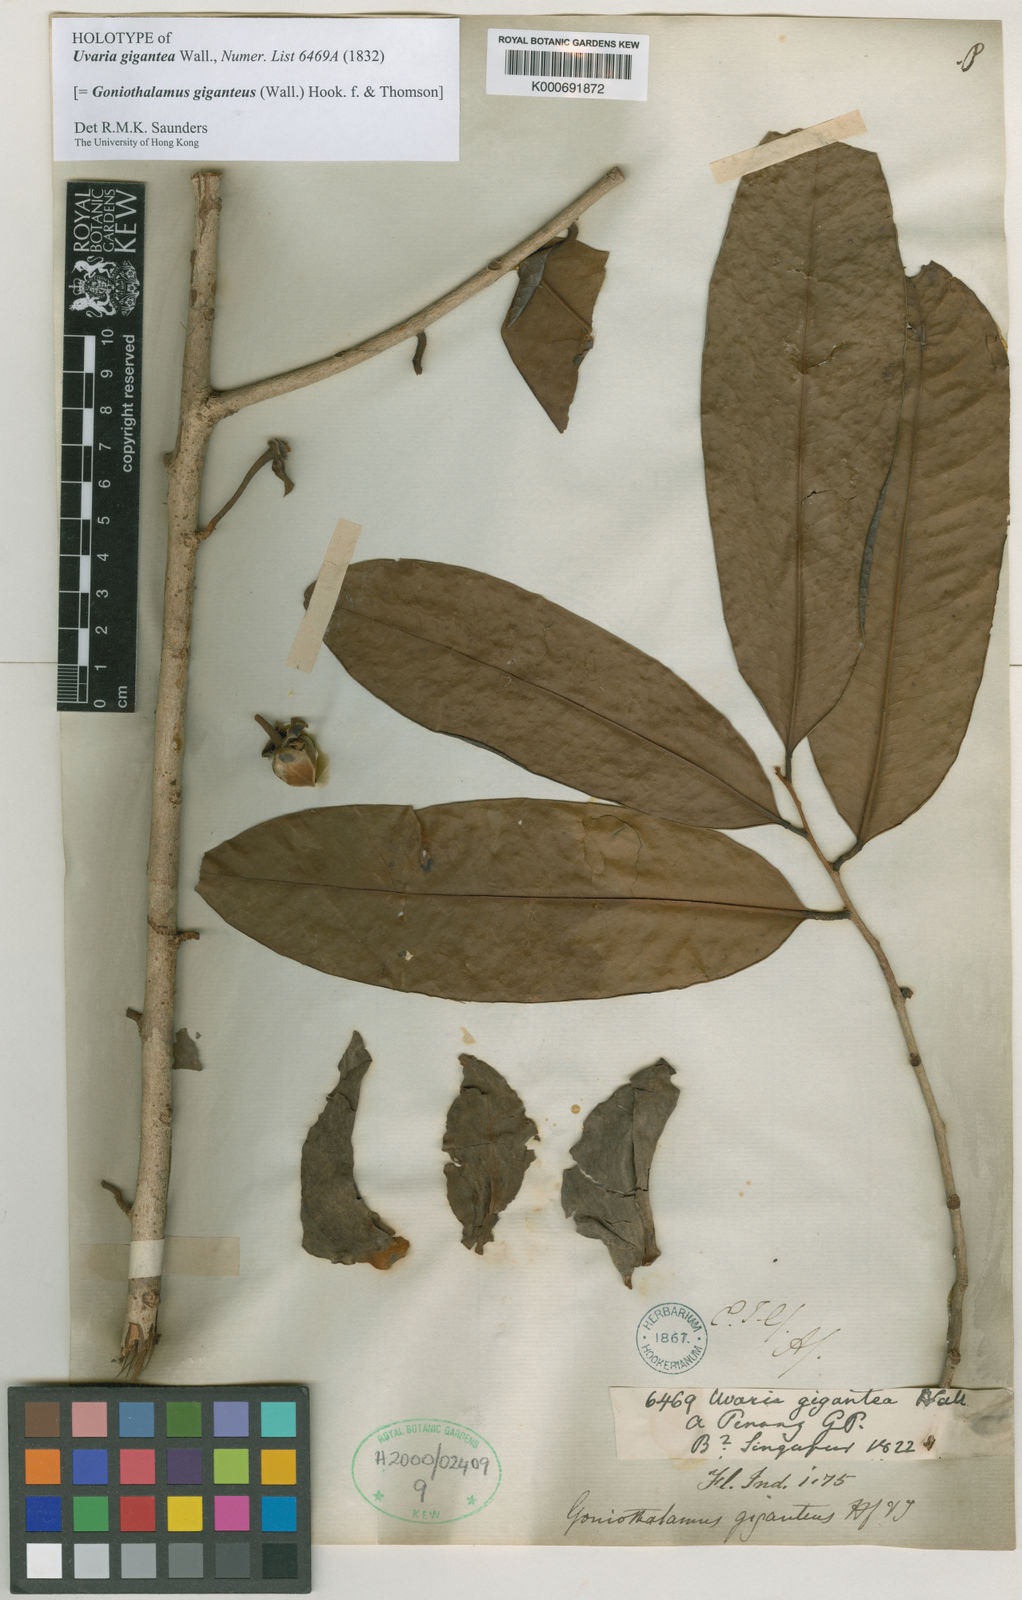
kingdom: Plantae
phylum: Tracheophyta
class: Magnoliopsida
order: Magnoliales
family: Annonaceae
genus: Goniothalamus
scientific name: Goniothalamus giganteus
